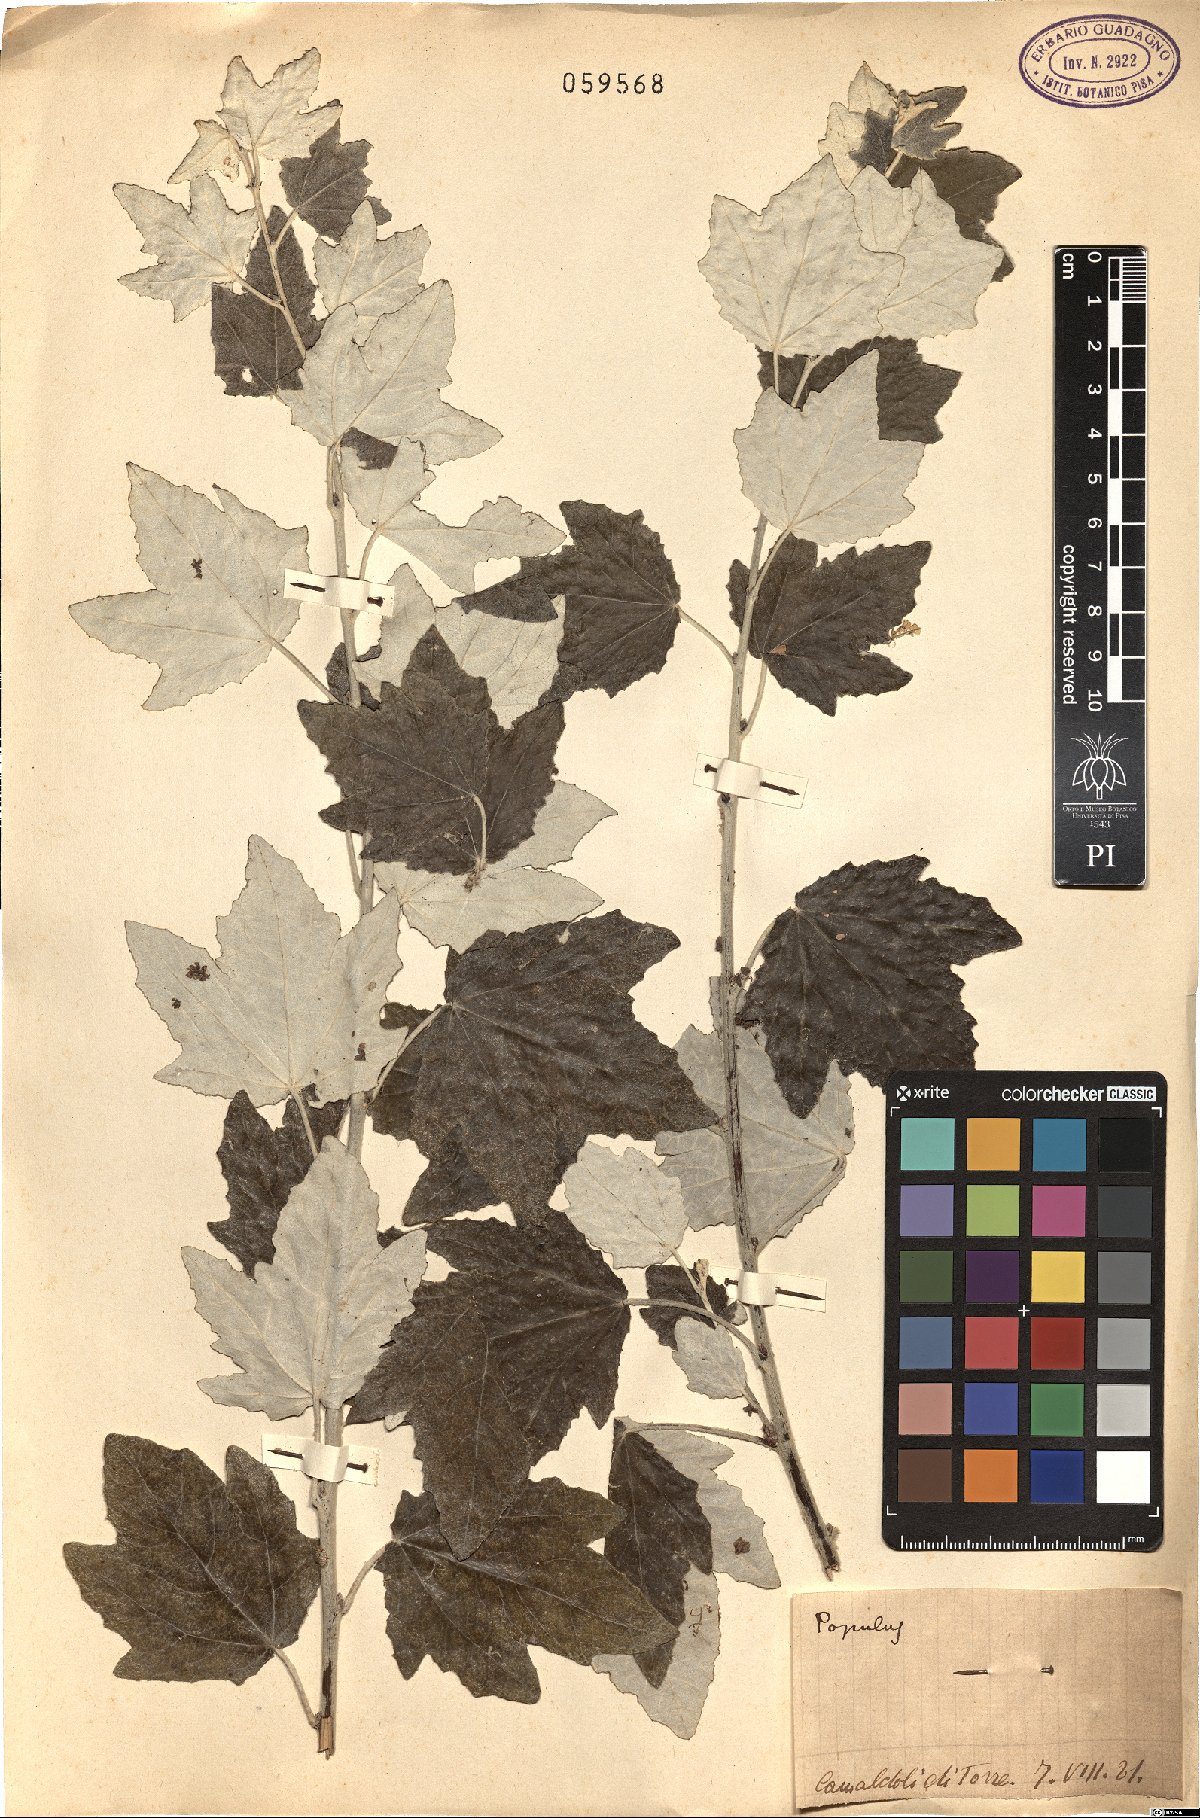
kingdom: Plantae
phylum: Tracheophyta
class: Magnoliopsida
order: Malpighiales
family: Salicaceae
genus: Populus
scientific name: Populus alba
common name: White poplar
